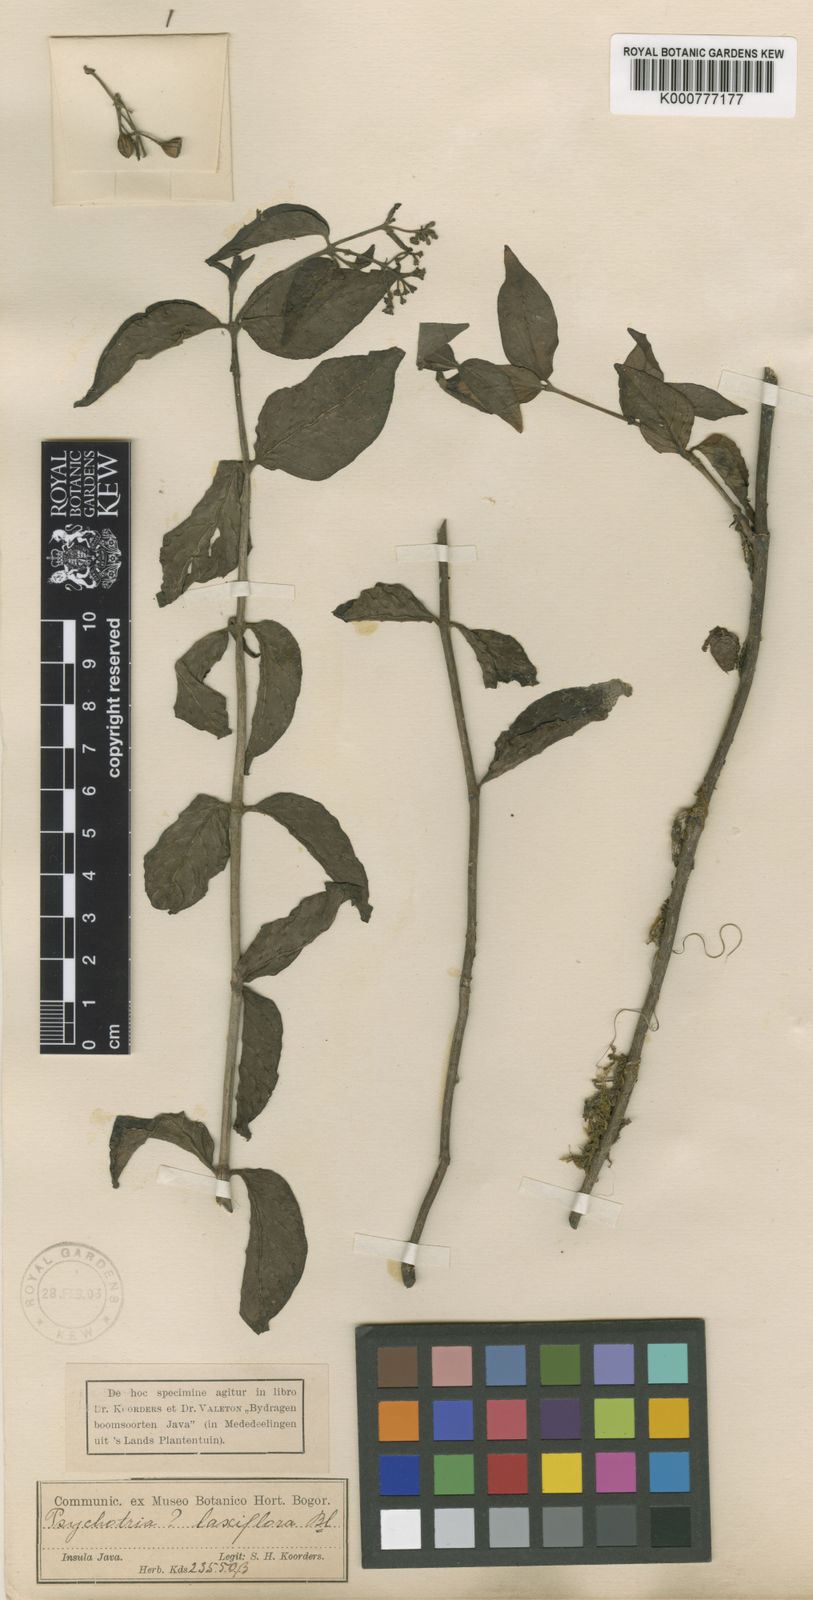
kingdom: Plantae
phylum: Tracheophyta
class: Magnoliopsida
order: Gentianales
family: Rubiaceae
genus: Psychotria
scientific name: Psychotria sarmentosa
